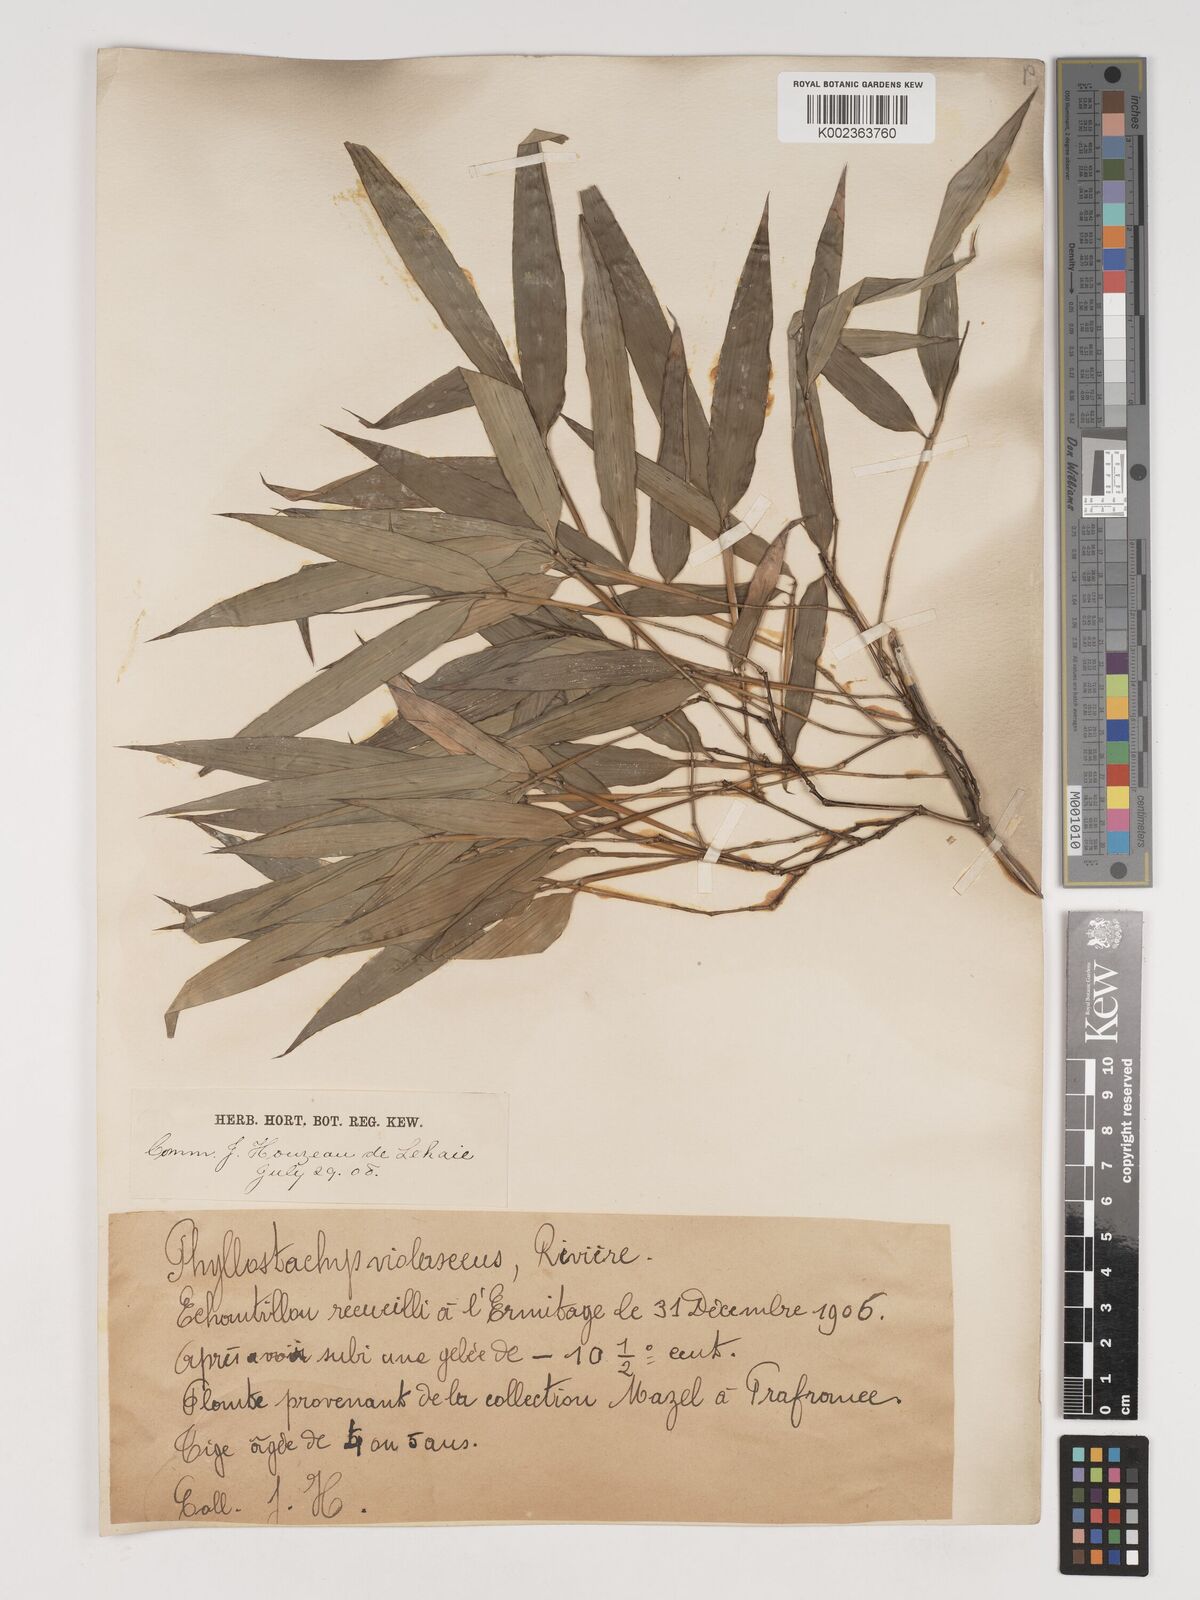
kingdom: Plantae
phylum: Tracheophyta
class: Liliopsida
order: Poales
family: Poaceae
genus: Phyllostachys
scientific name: Phyllostachys reticulata
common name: Bamboo
